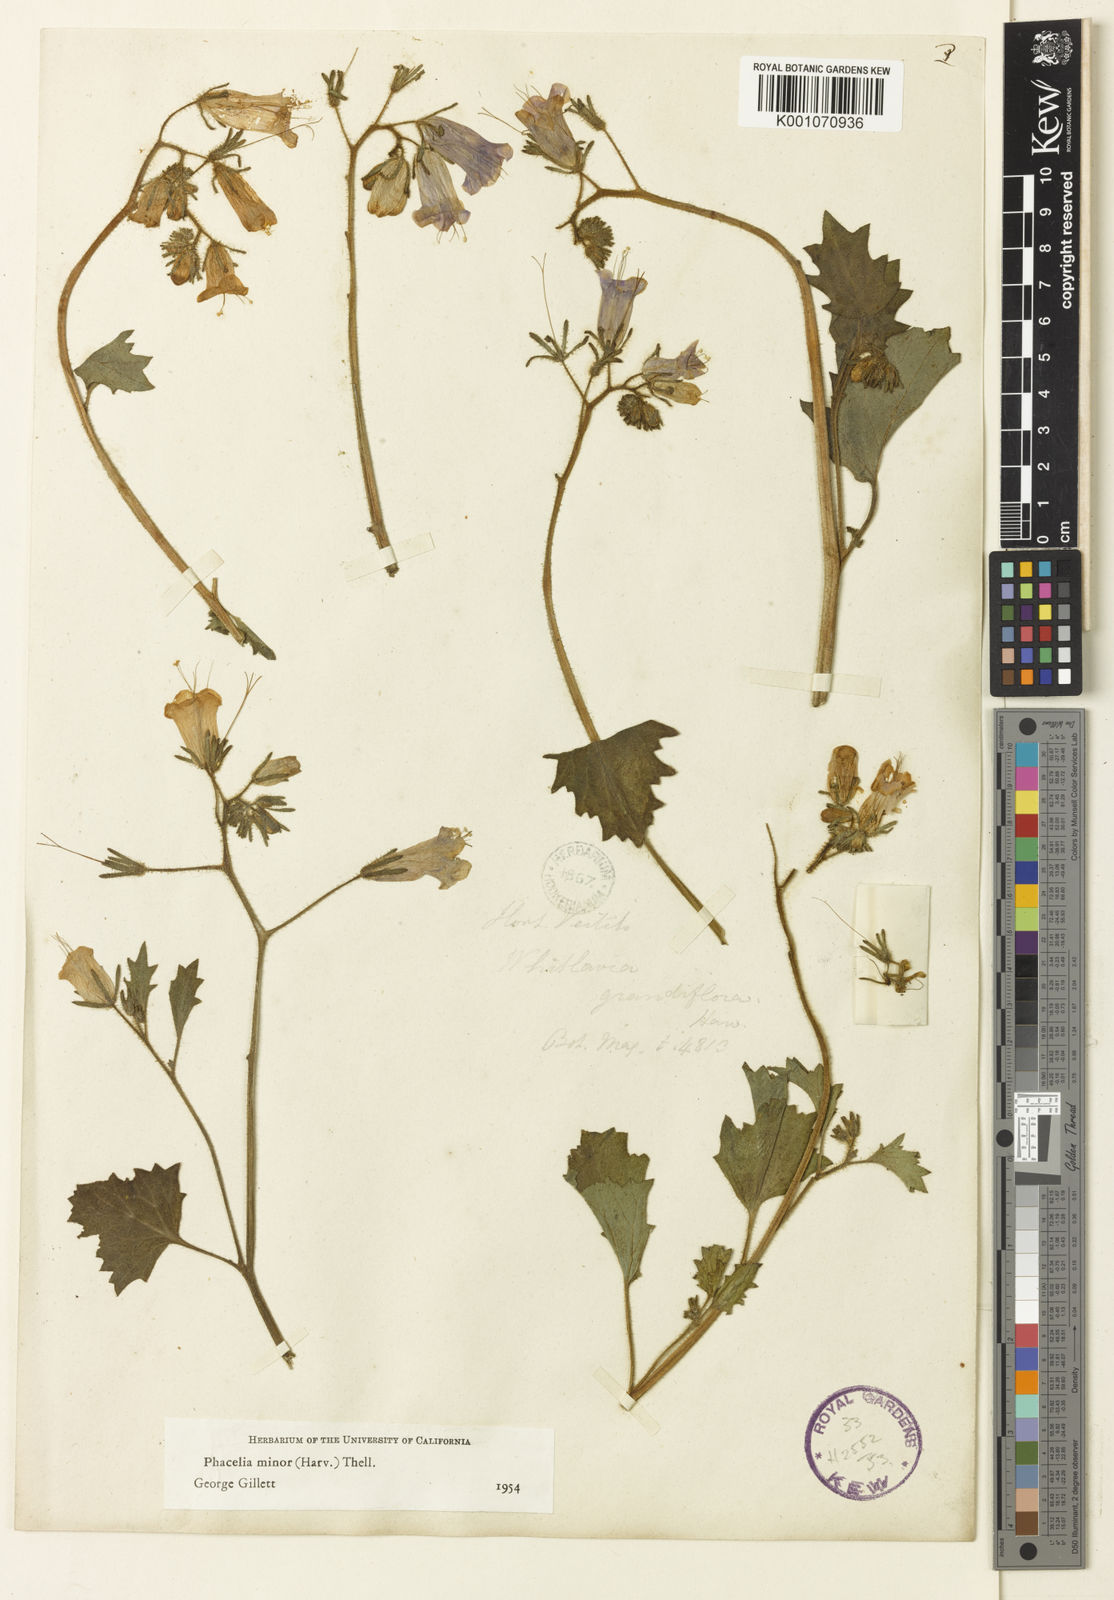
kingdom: Plantae
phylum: Tracheophyta
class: Magnoliopsida
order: Boraginales
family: Hydrophyllaceae
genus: Phacelia
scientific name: Phacelia
